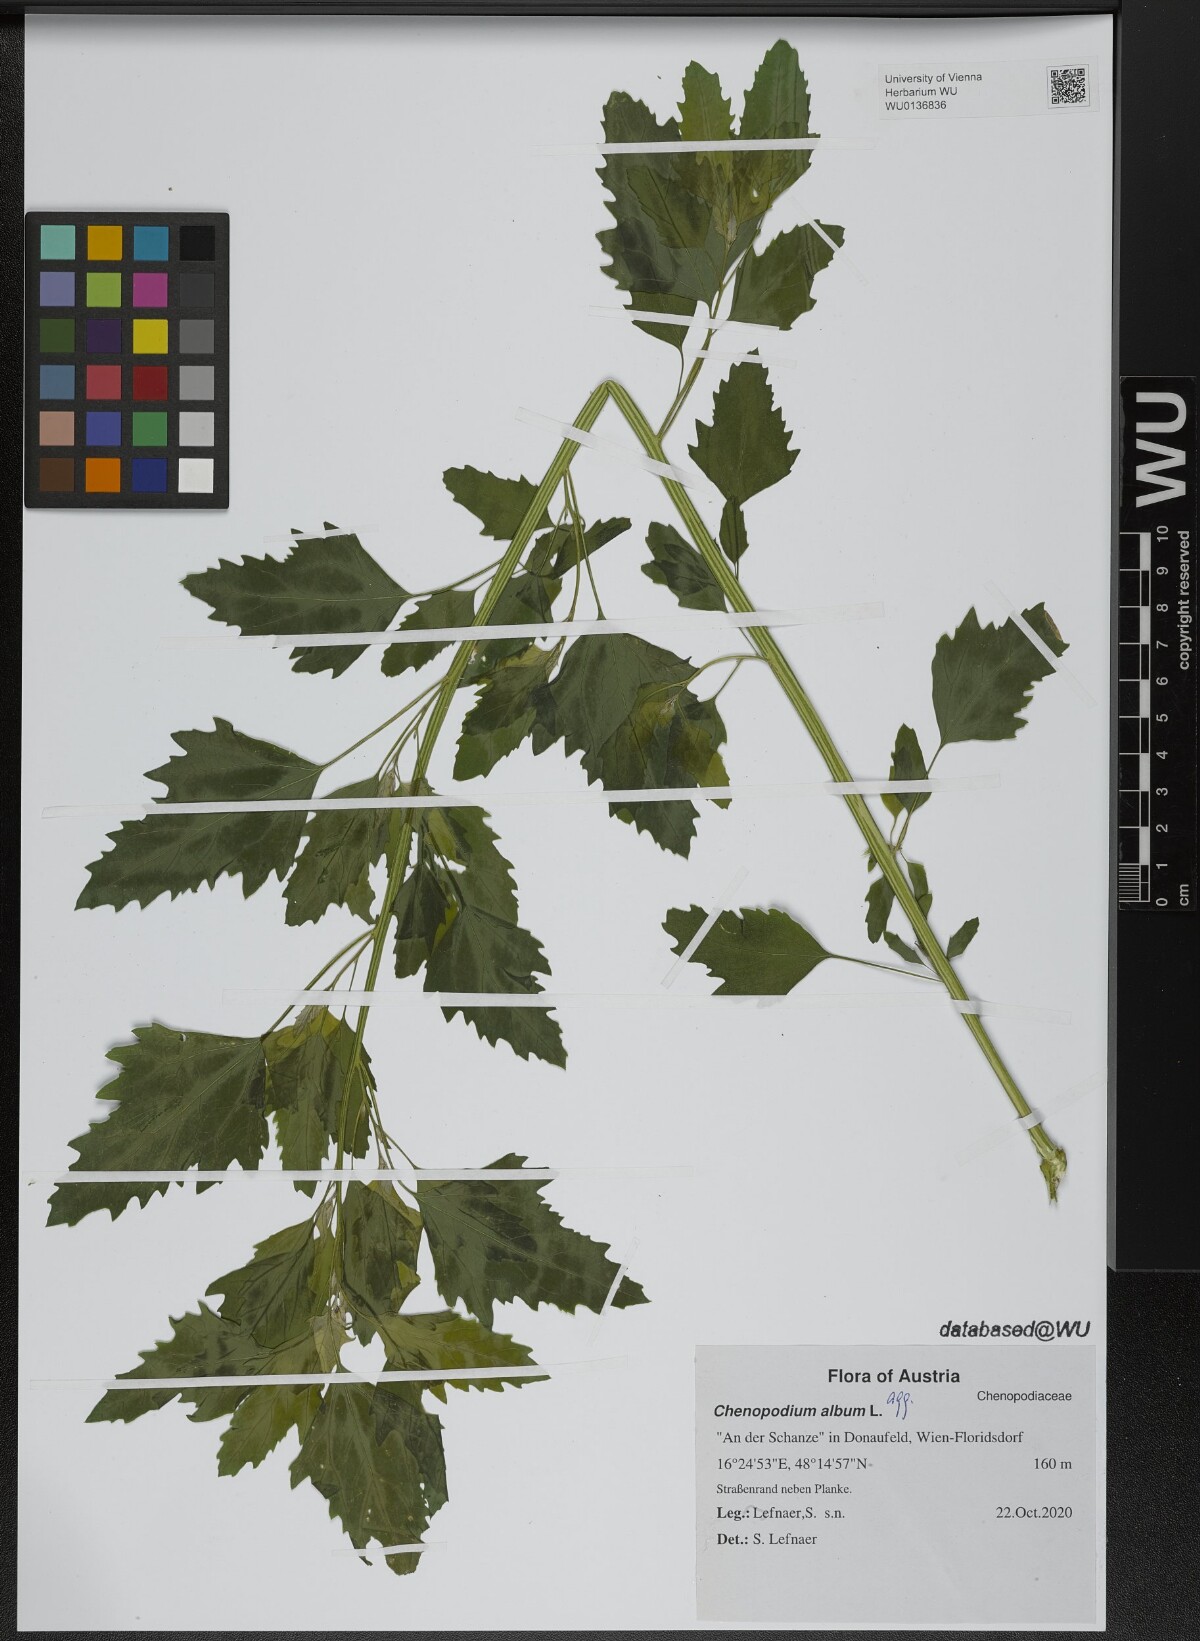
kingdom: Plantae
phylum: Tracheophyta
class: Magnoliopsida
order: Caryophyllales
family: Amaranthaceae
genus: Chenopodium
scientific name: Chenopodium album
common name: Fat-hen
